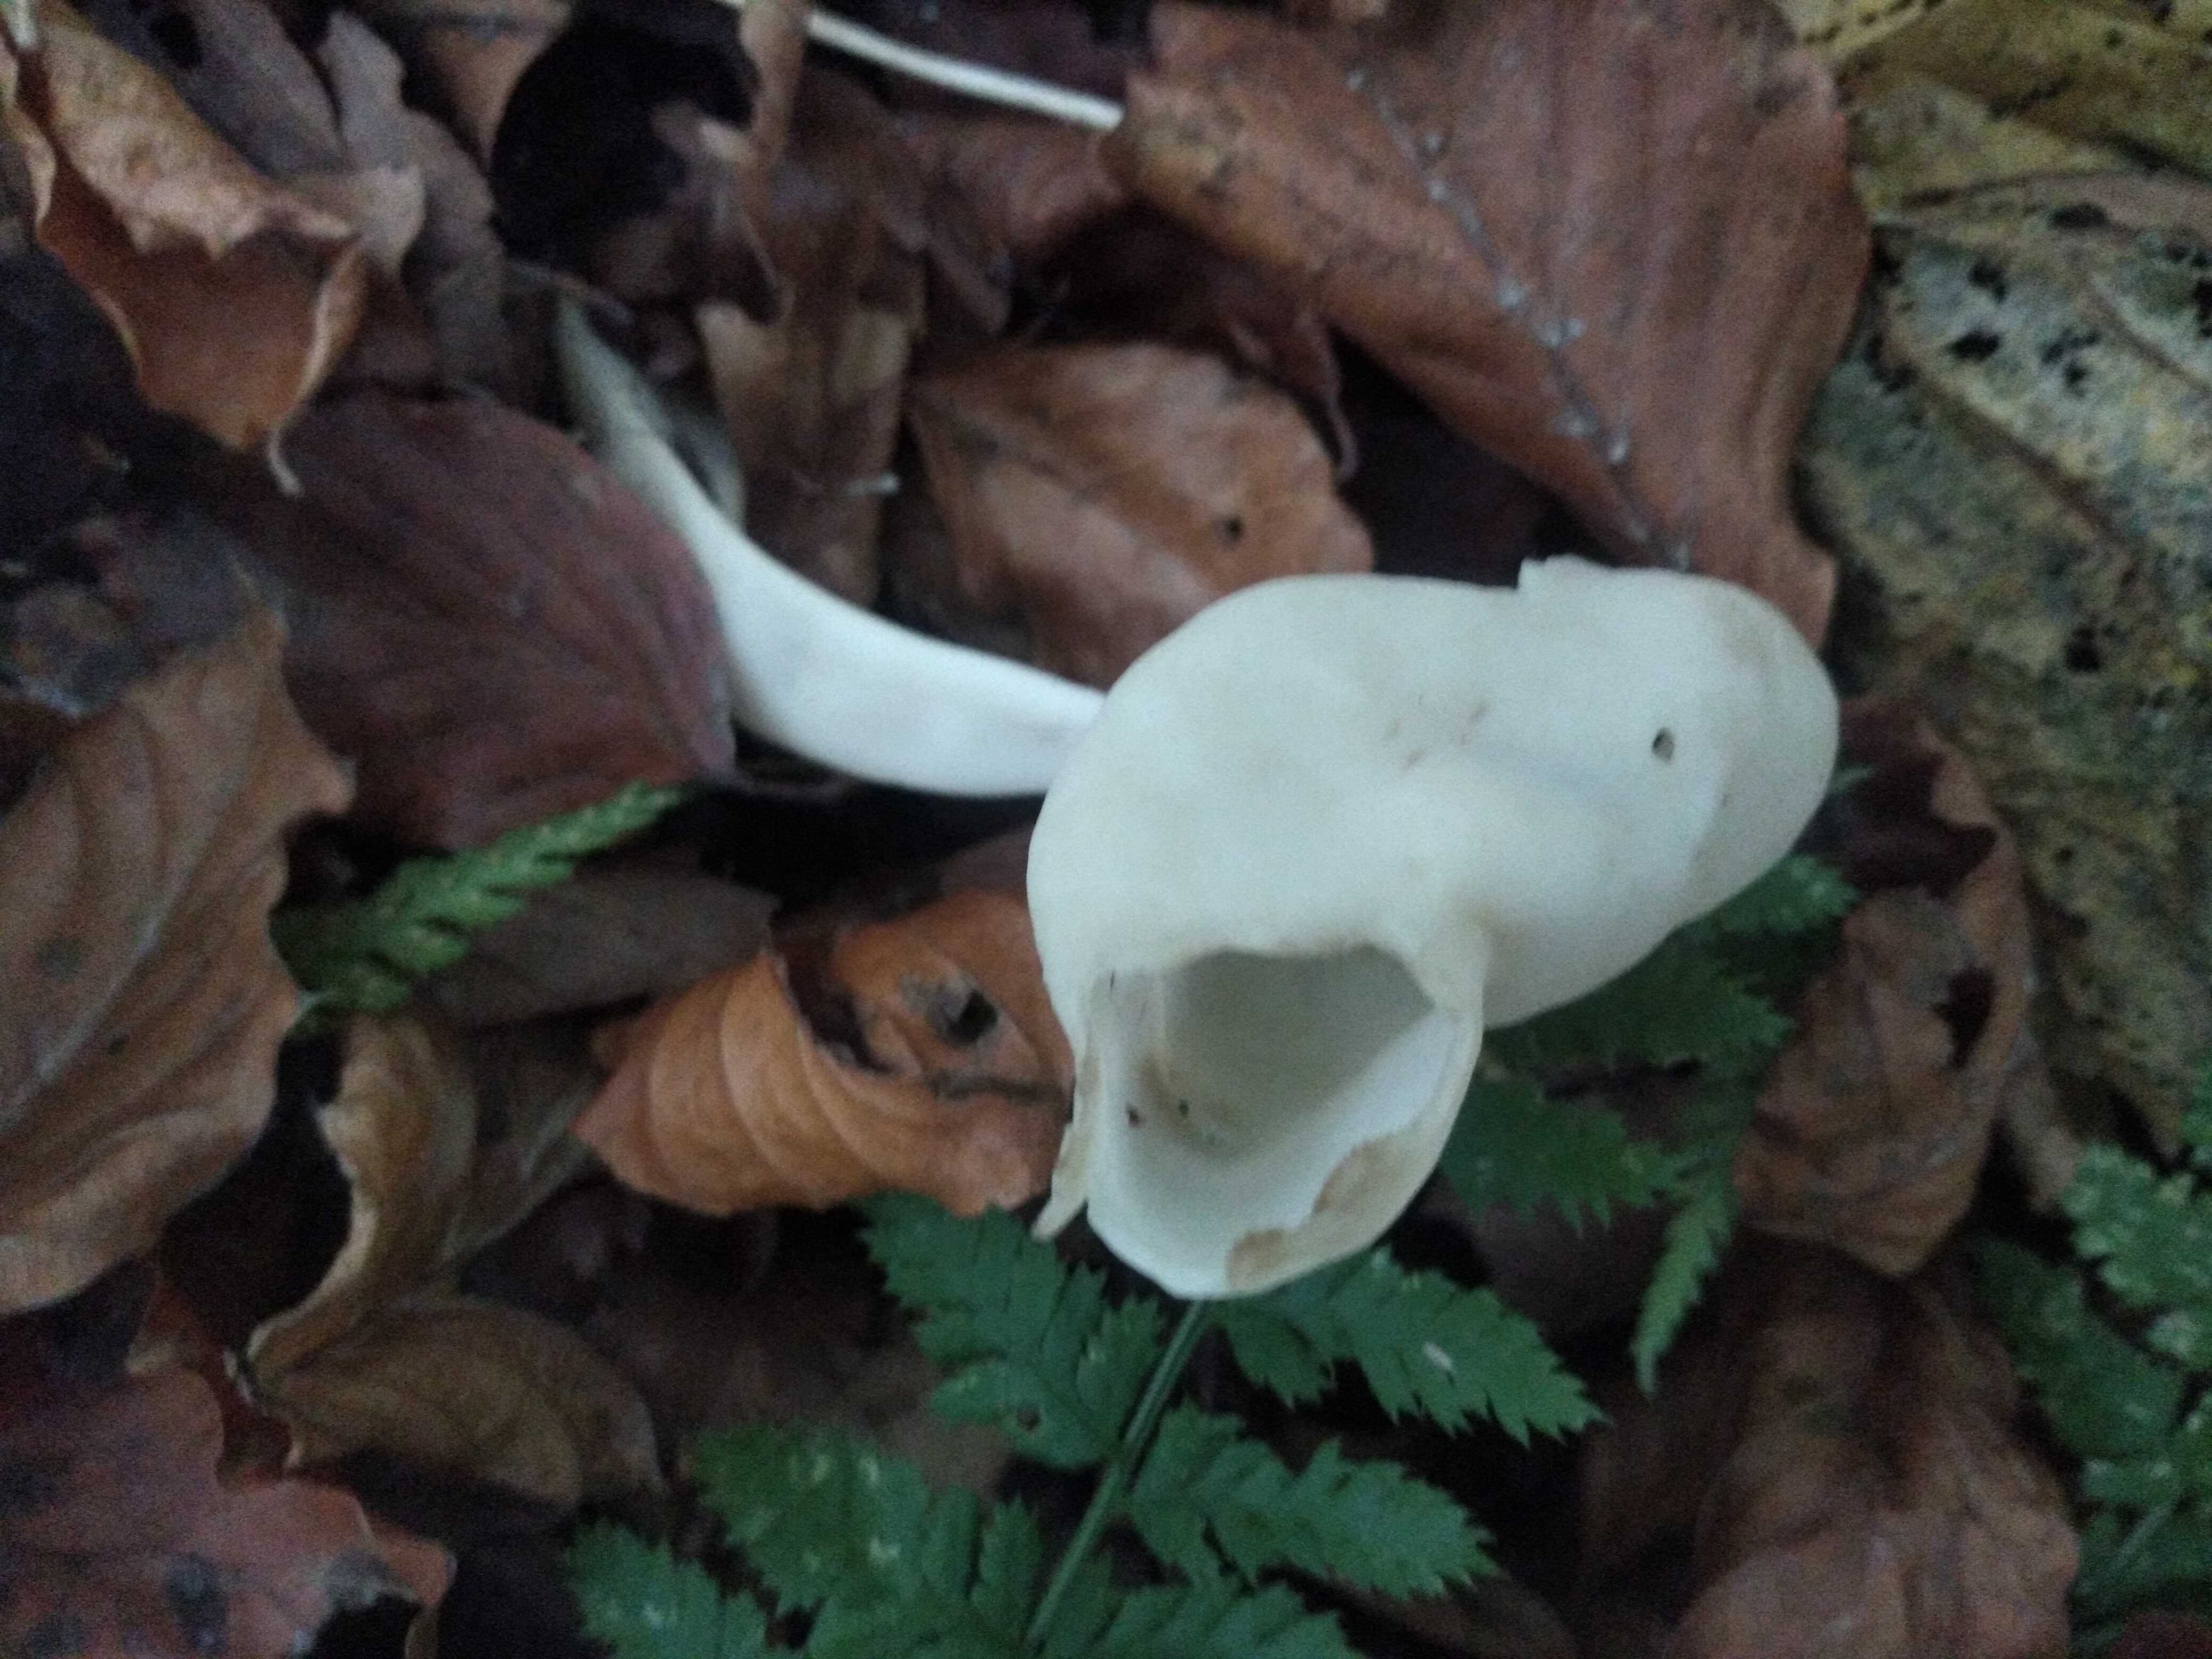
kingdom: Fungi
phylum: Ascomycota
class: Pezizomycetes
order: Pezizales
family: Helvellaceae
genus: Helvella
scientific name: Helvella elastica
